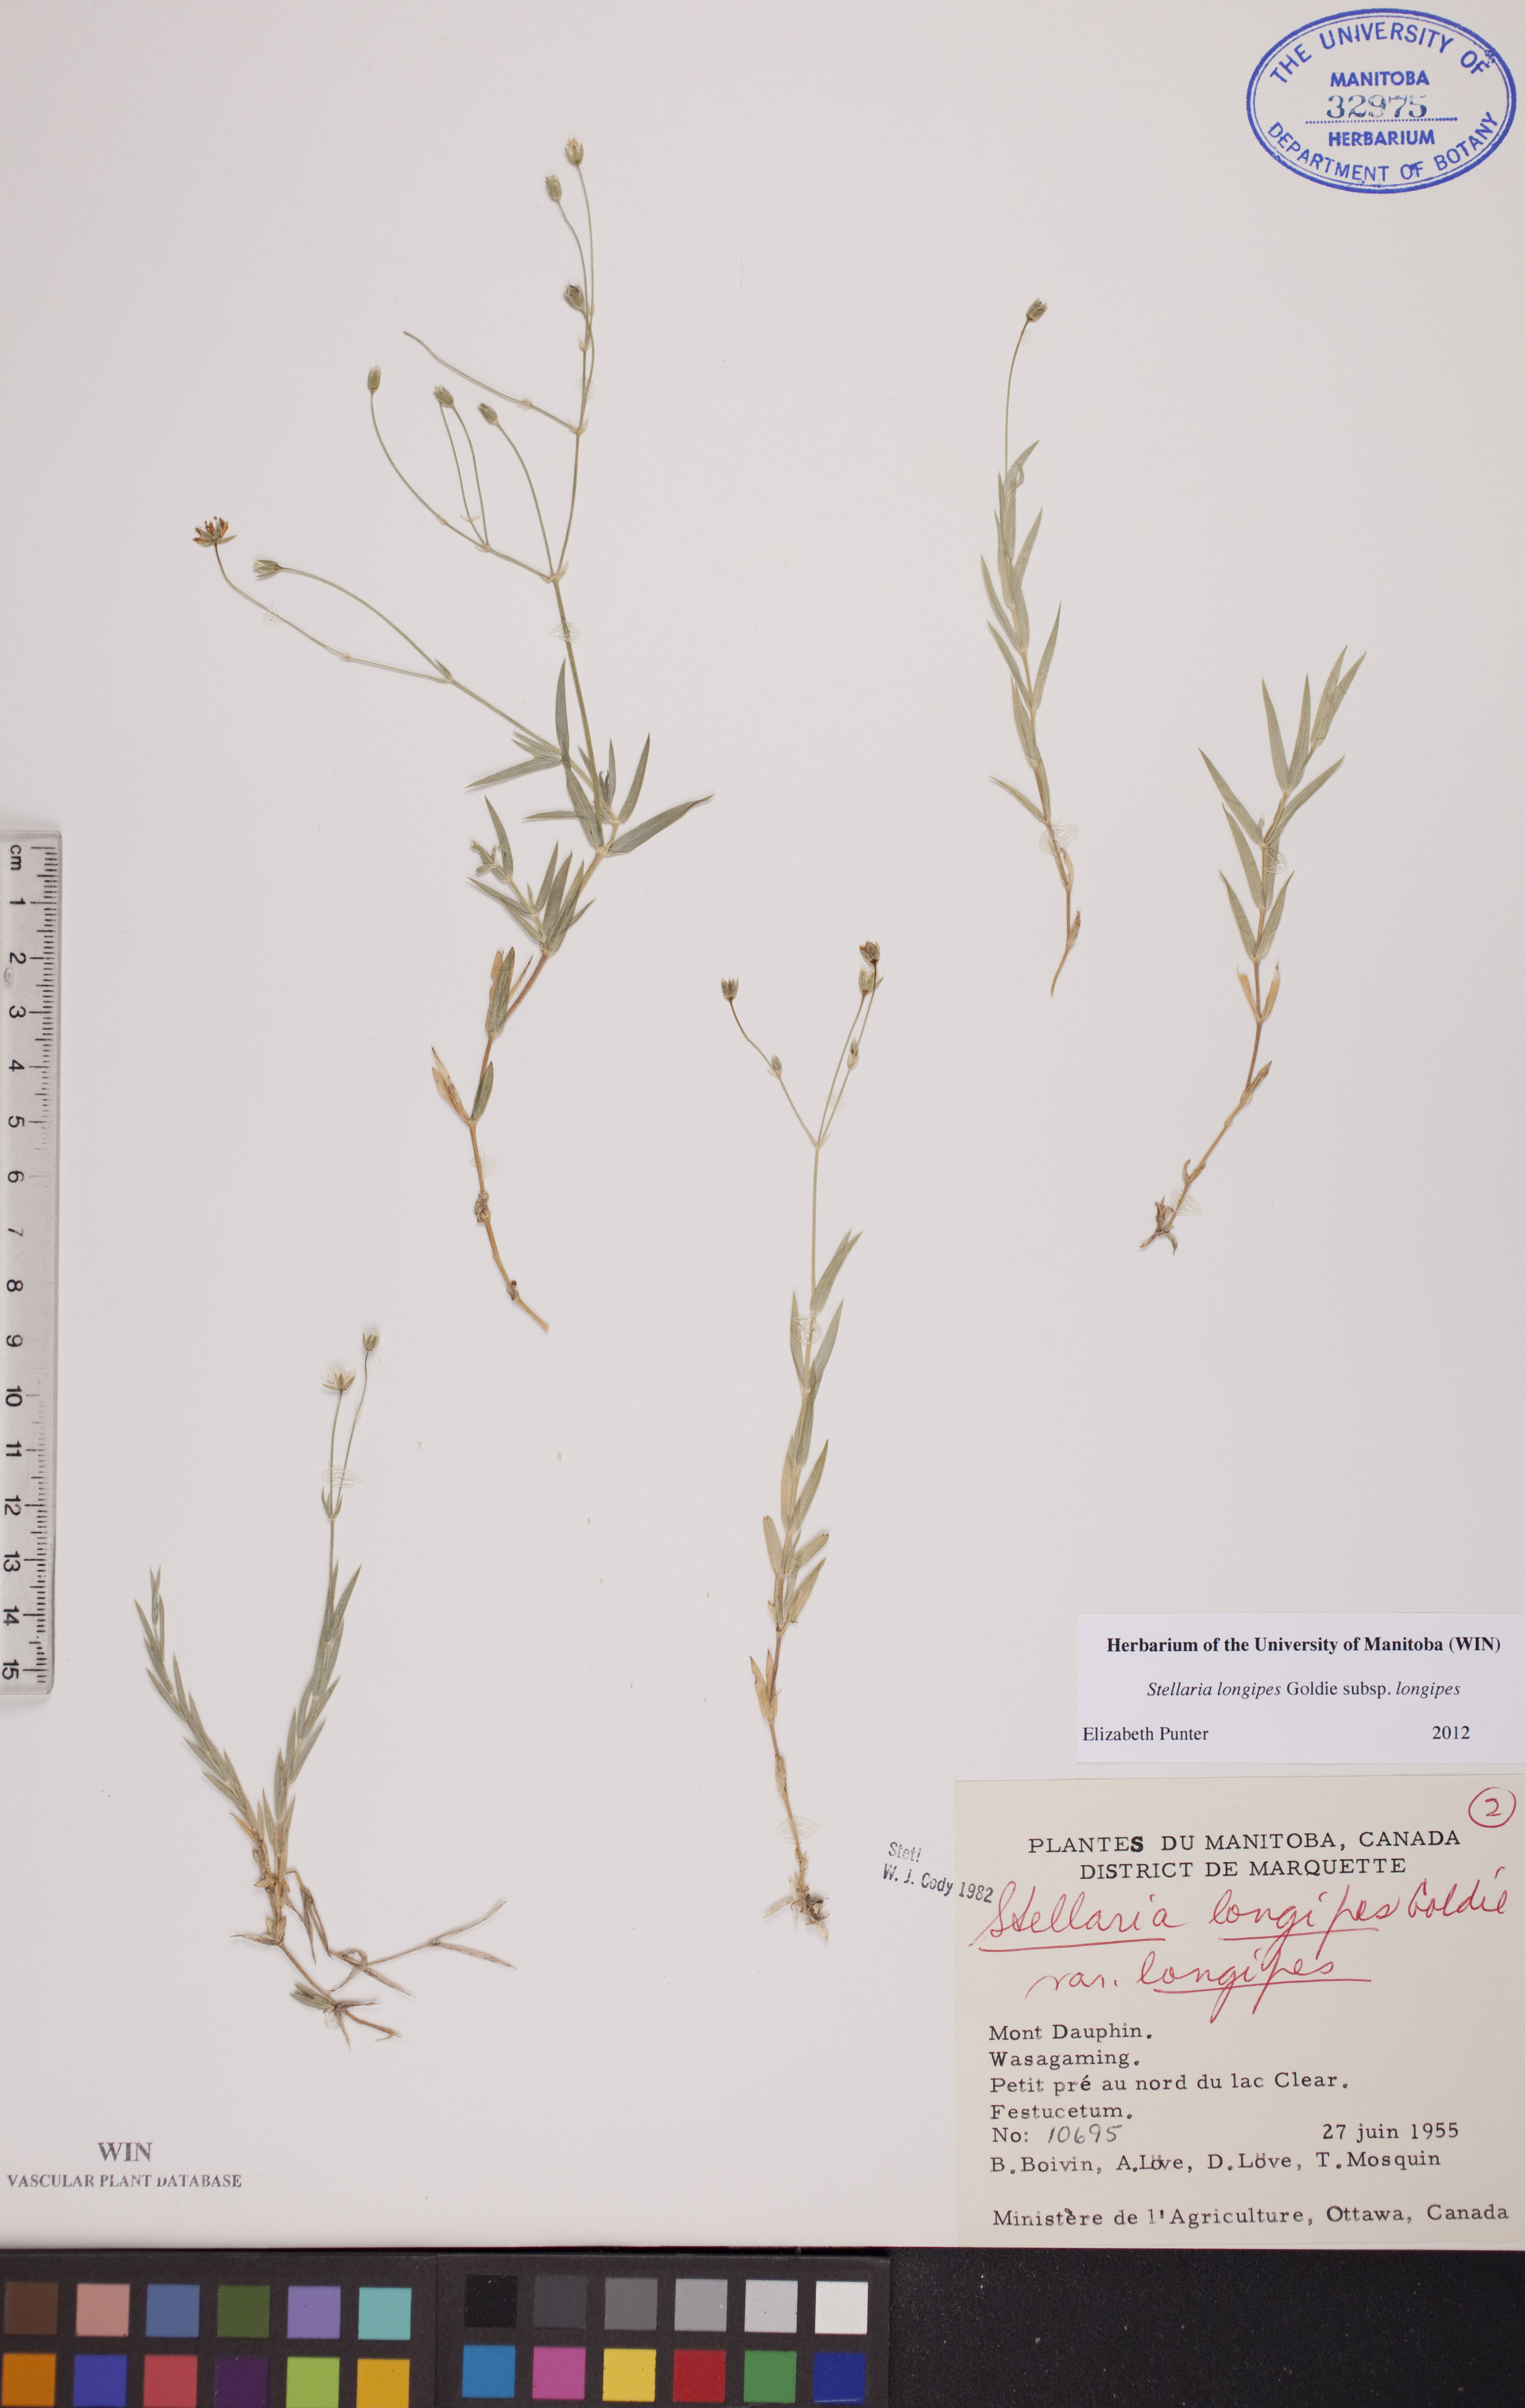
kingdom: Plantae
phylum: Tracheophyta
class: Magnoliopsida
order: Caryophyllales
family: Caryophyllaceae
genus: Stellaria
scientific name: Stellaria longipes
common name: Goldie's starwort
